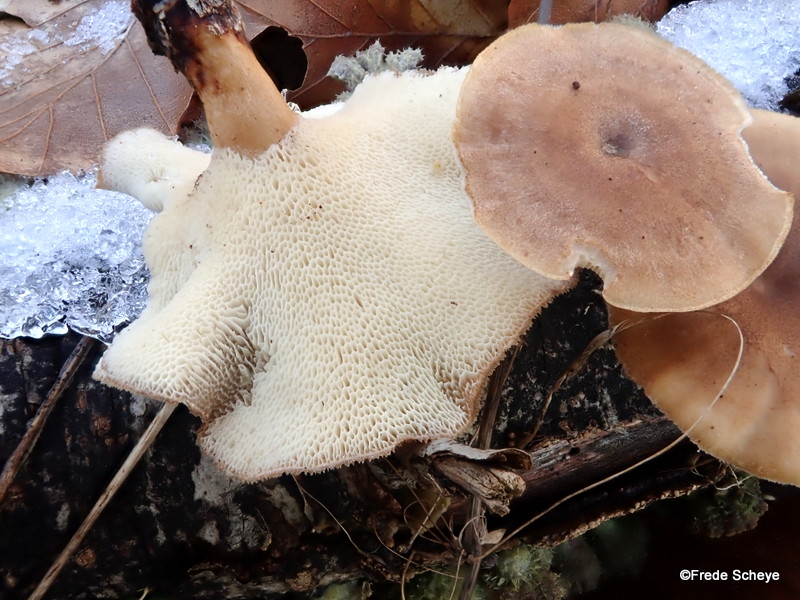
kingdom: Fungi
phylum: Basidiomycota
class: Agaricomycetes
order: Polyporales
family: Polyporaceae
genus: Lentinus
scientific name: Lentinus brumalis
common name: vinter-stilkporesvamp
